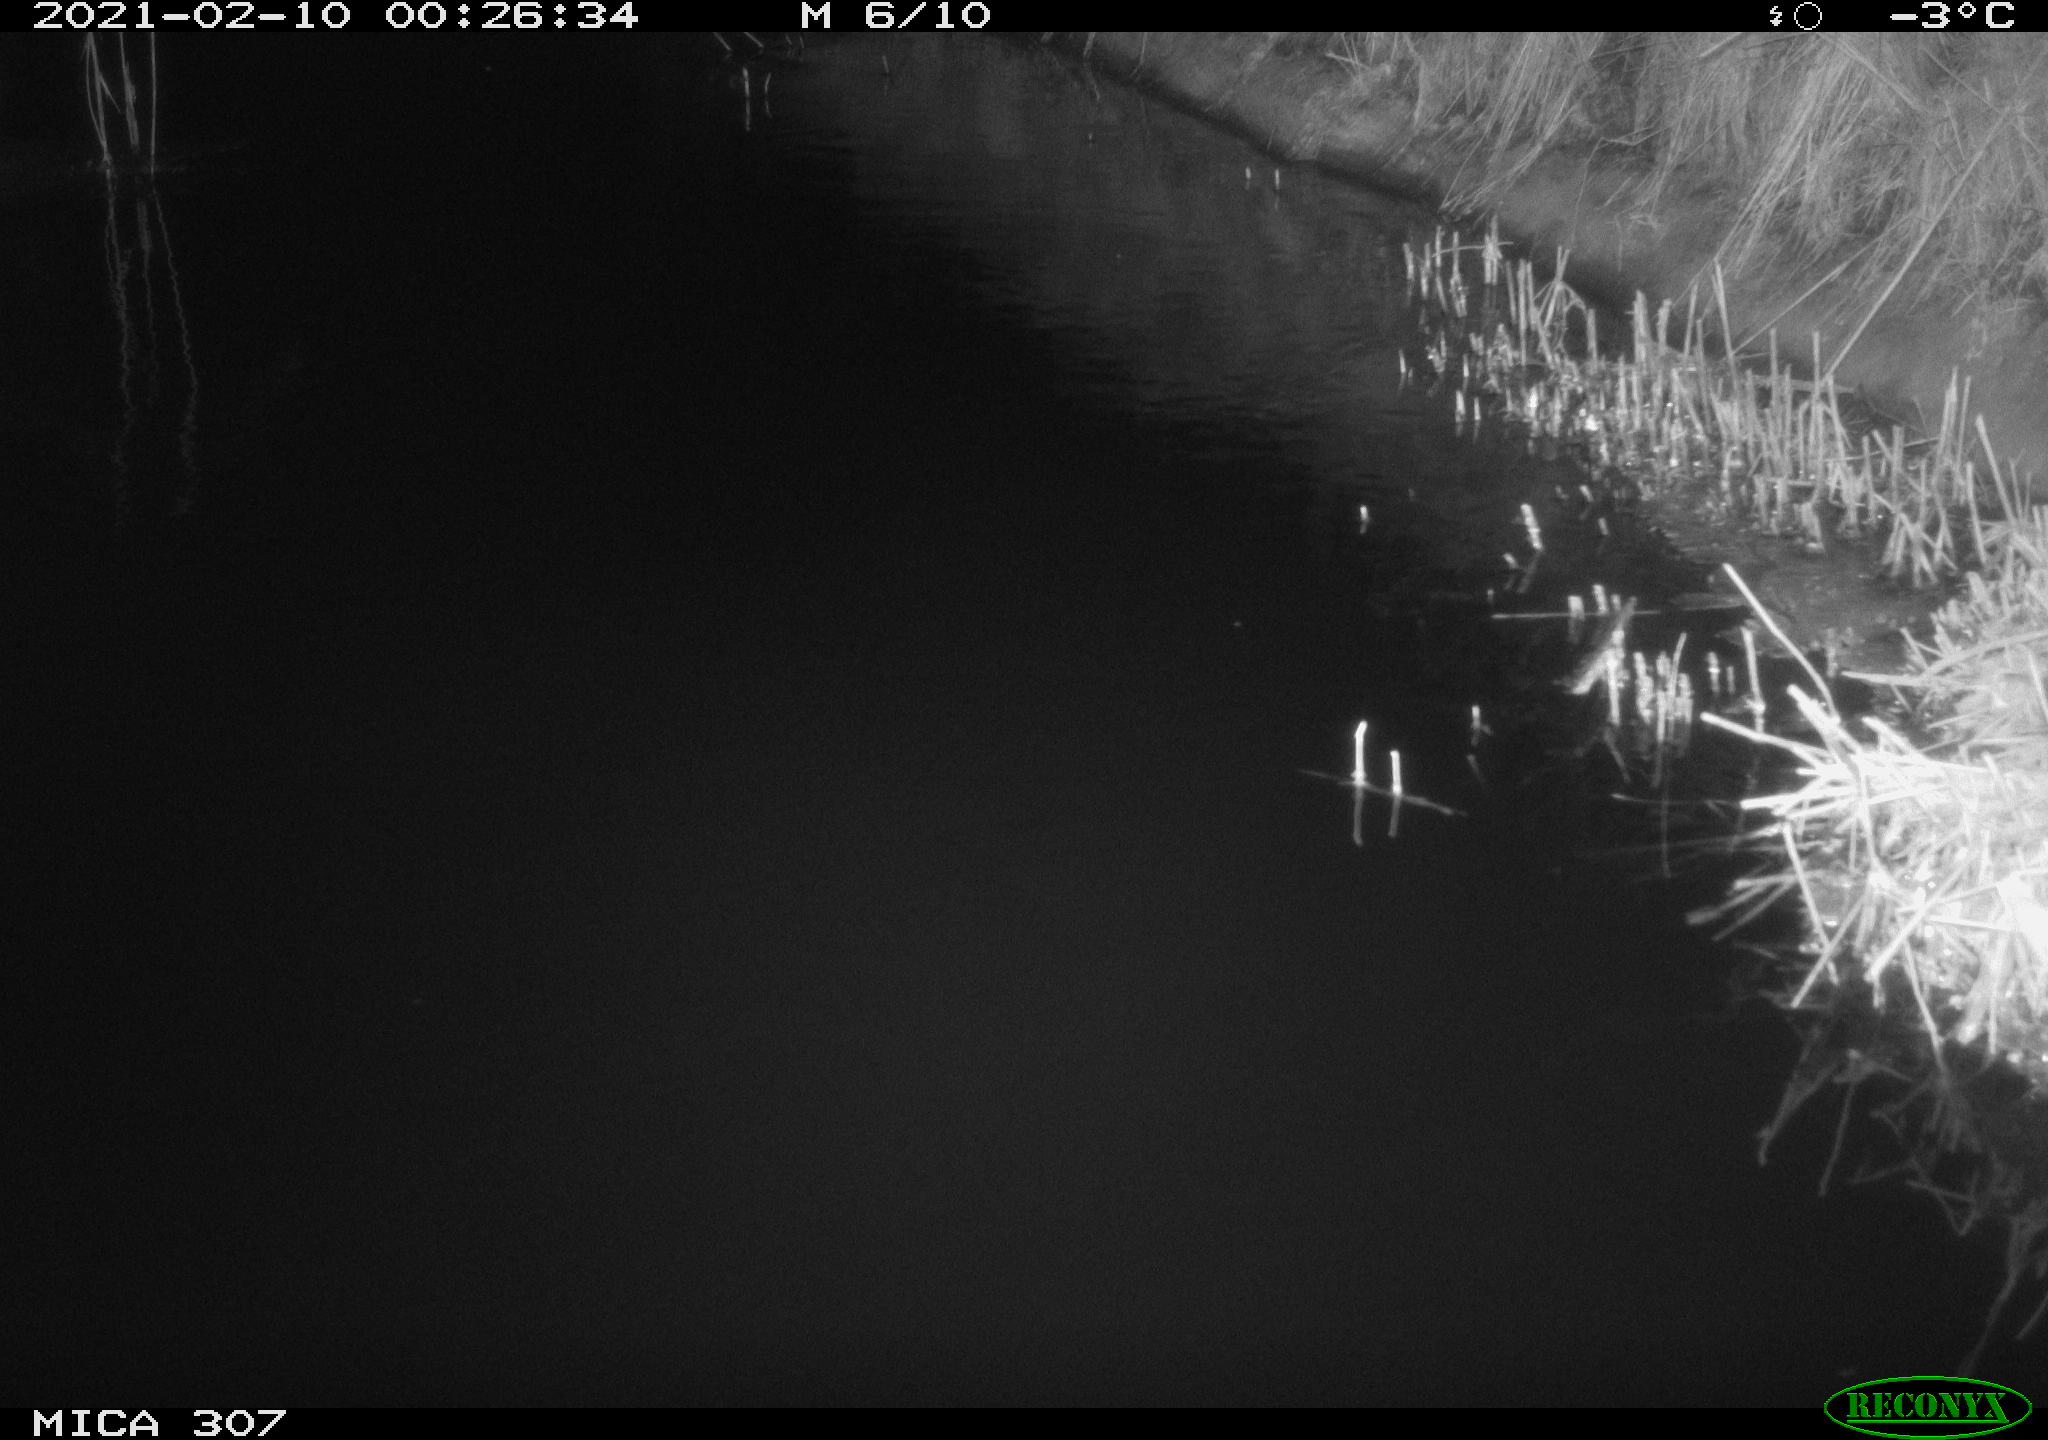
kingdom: Animalia
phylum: Chordata
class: Mammalia
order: Rodentia
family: Muridae
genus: Rattus
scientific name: Rattus norvegicus
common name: Brown rat
